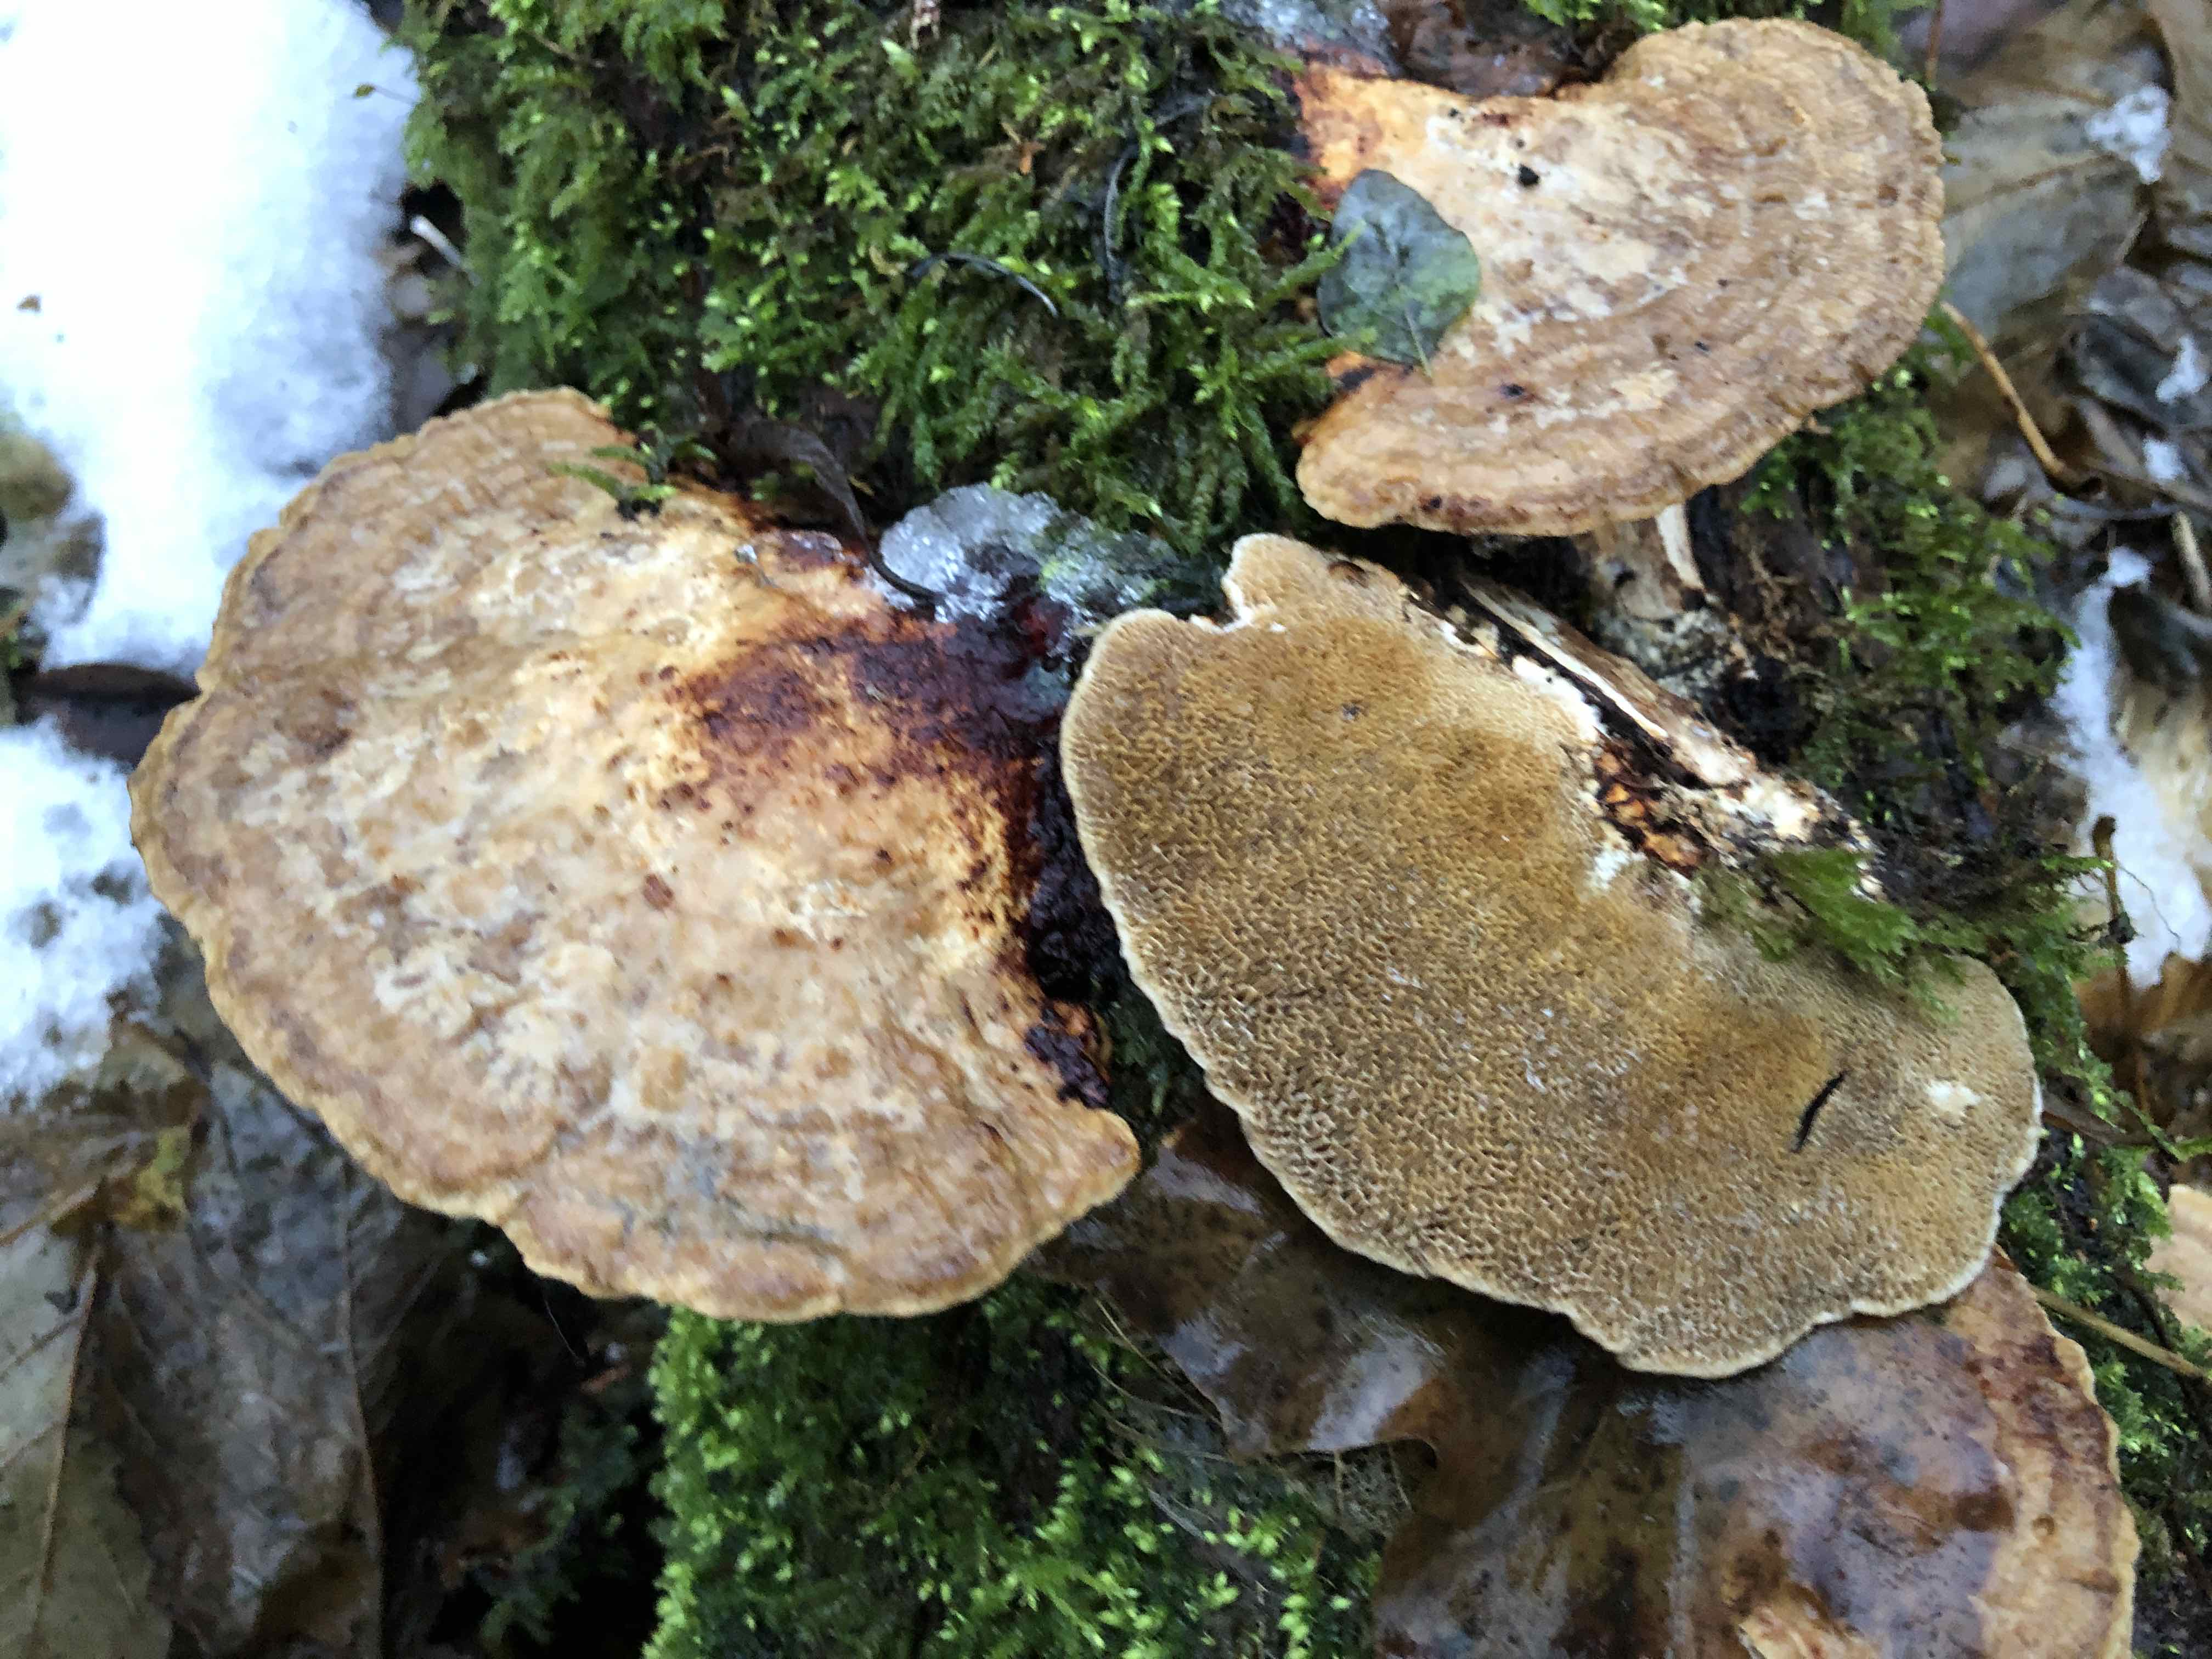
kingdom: Fungi
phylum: Basidiomycota
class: Agaricomycetes
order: Polyporales
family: Polyporaceae
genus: Daedaleopsis
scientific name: Daedaleopsis confragosa
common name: rødmende læderporesvamp
